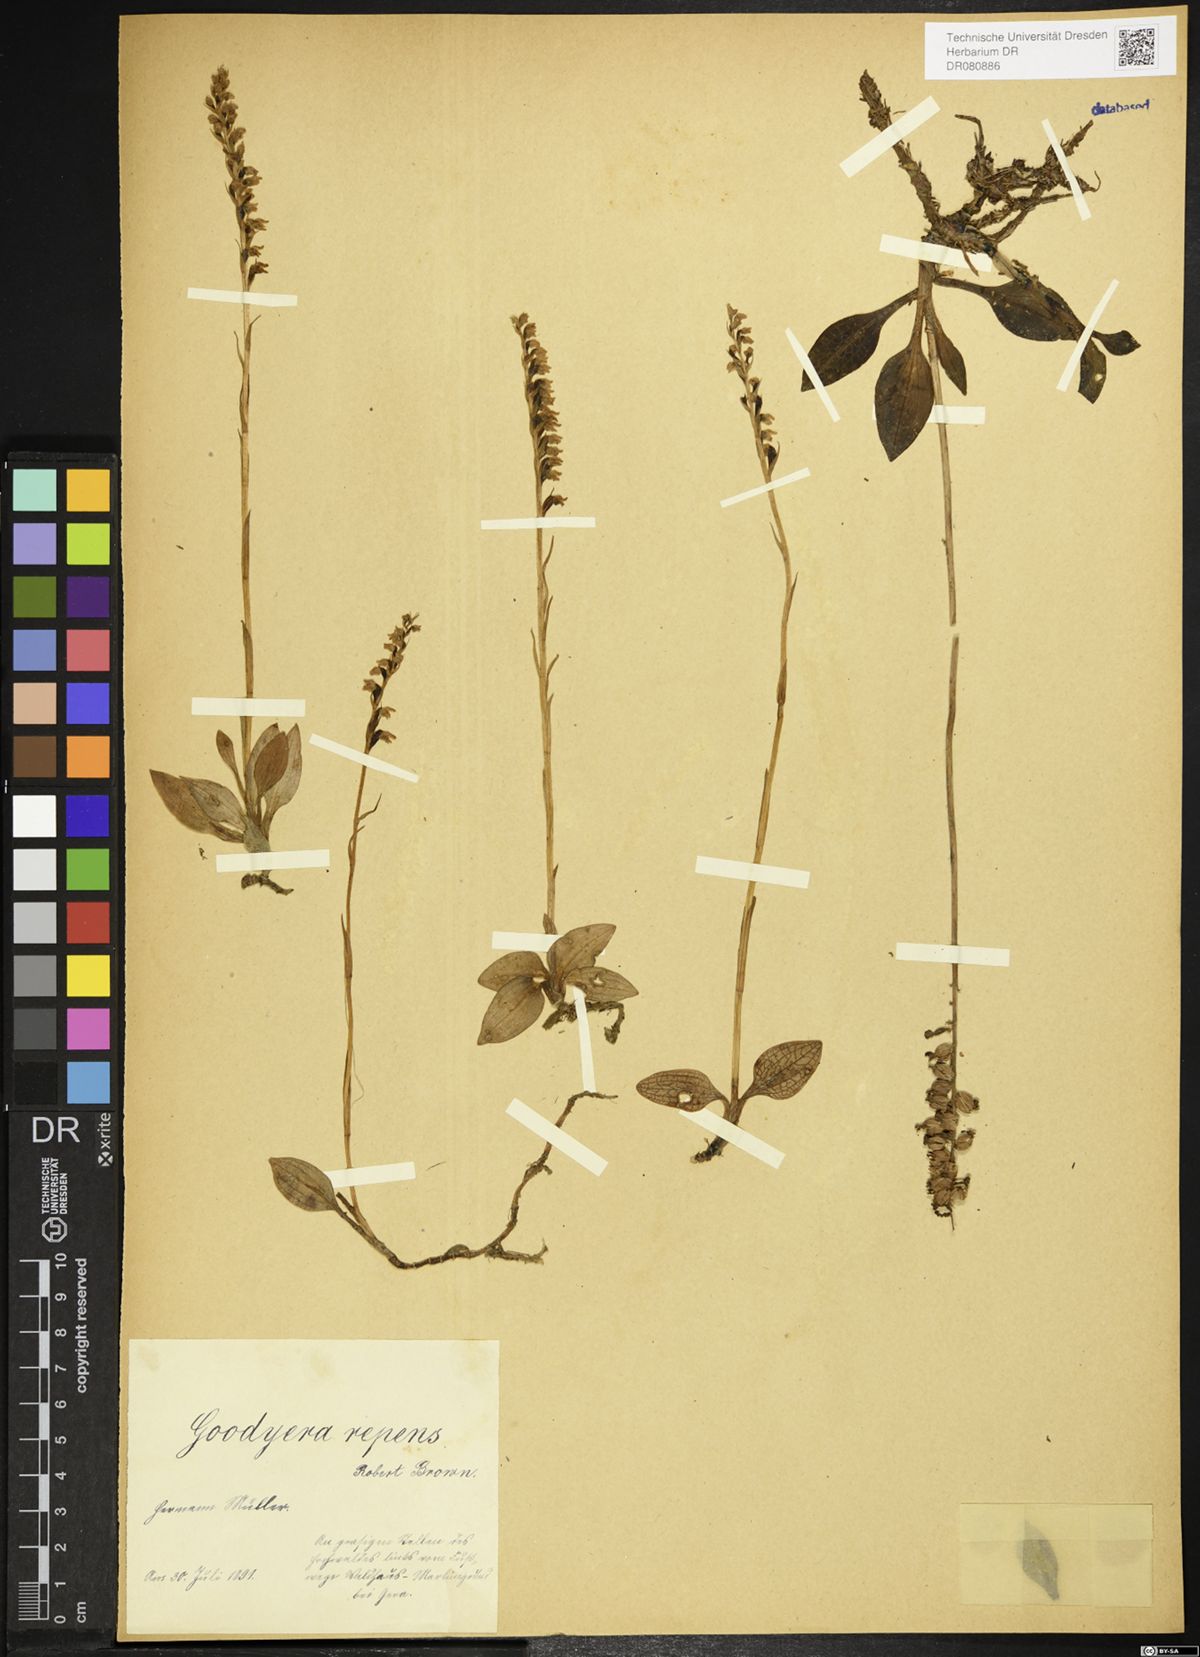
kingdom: Plantae
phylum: Tracheophyta
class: Liliopsida
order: Asparagales
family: Orchidaceae
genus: Goodyera
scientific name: Goodyera repens
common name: Creeping lady's-tresses
